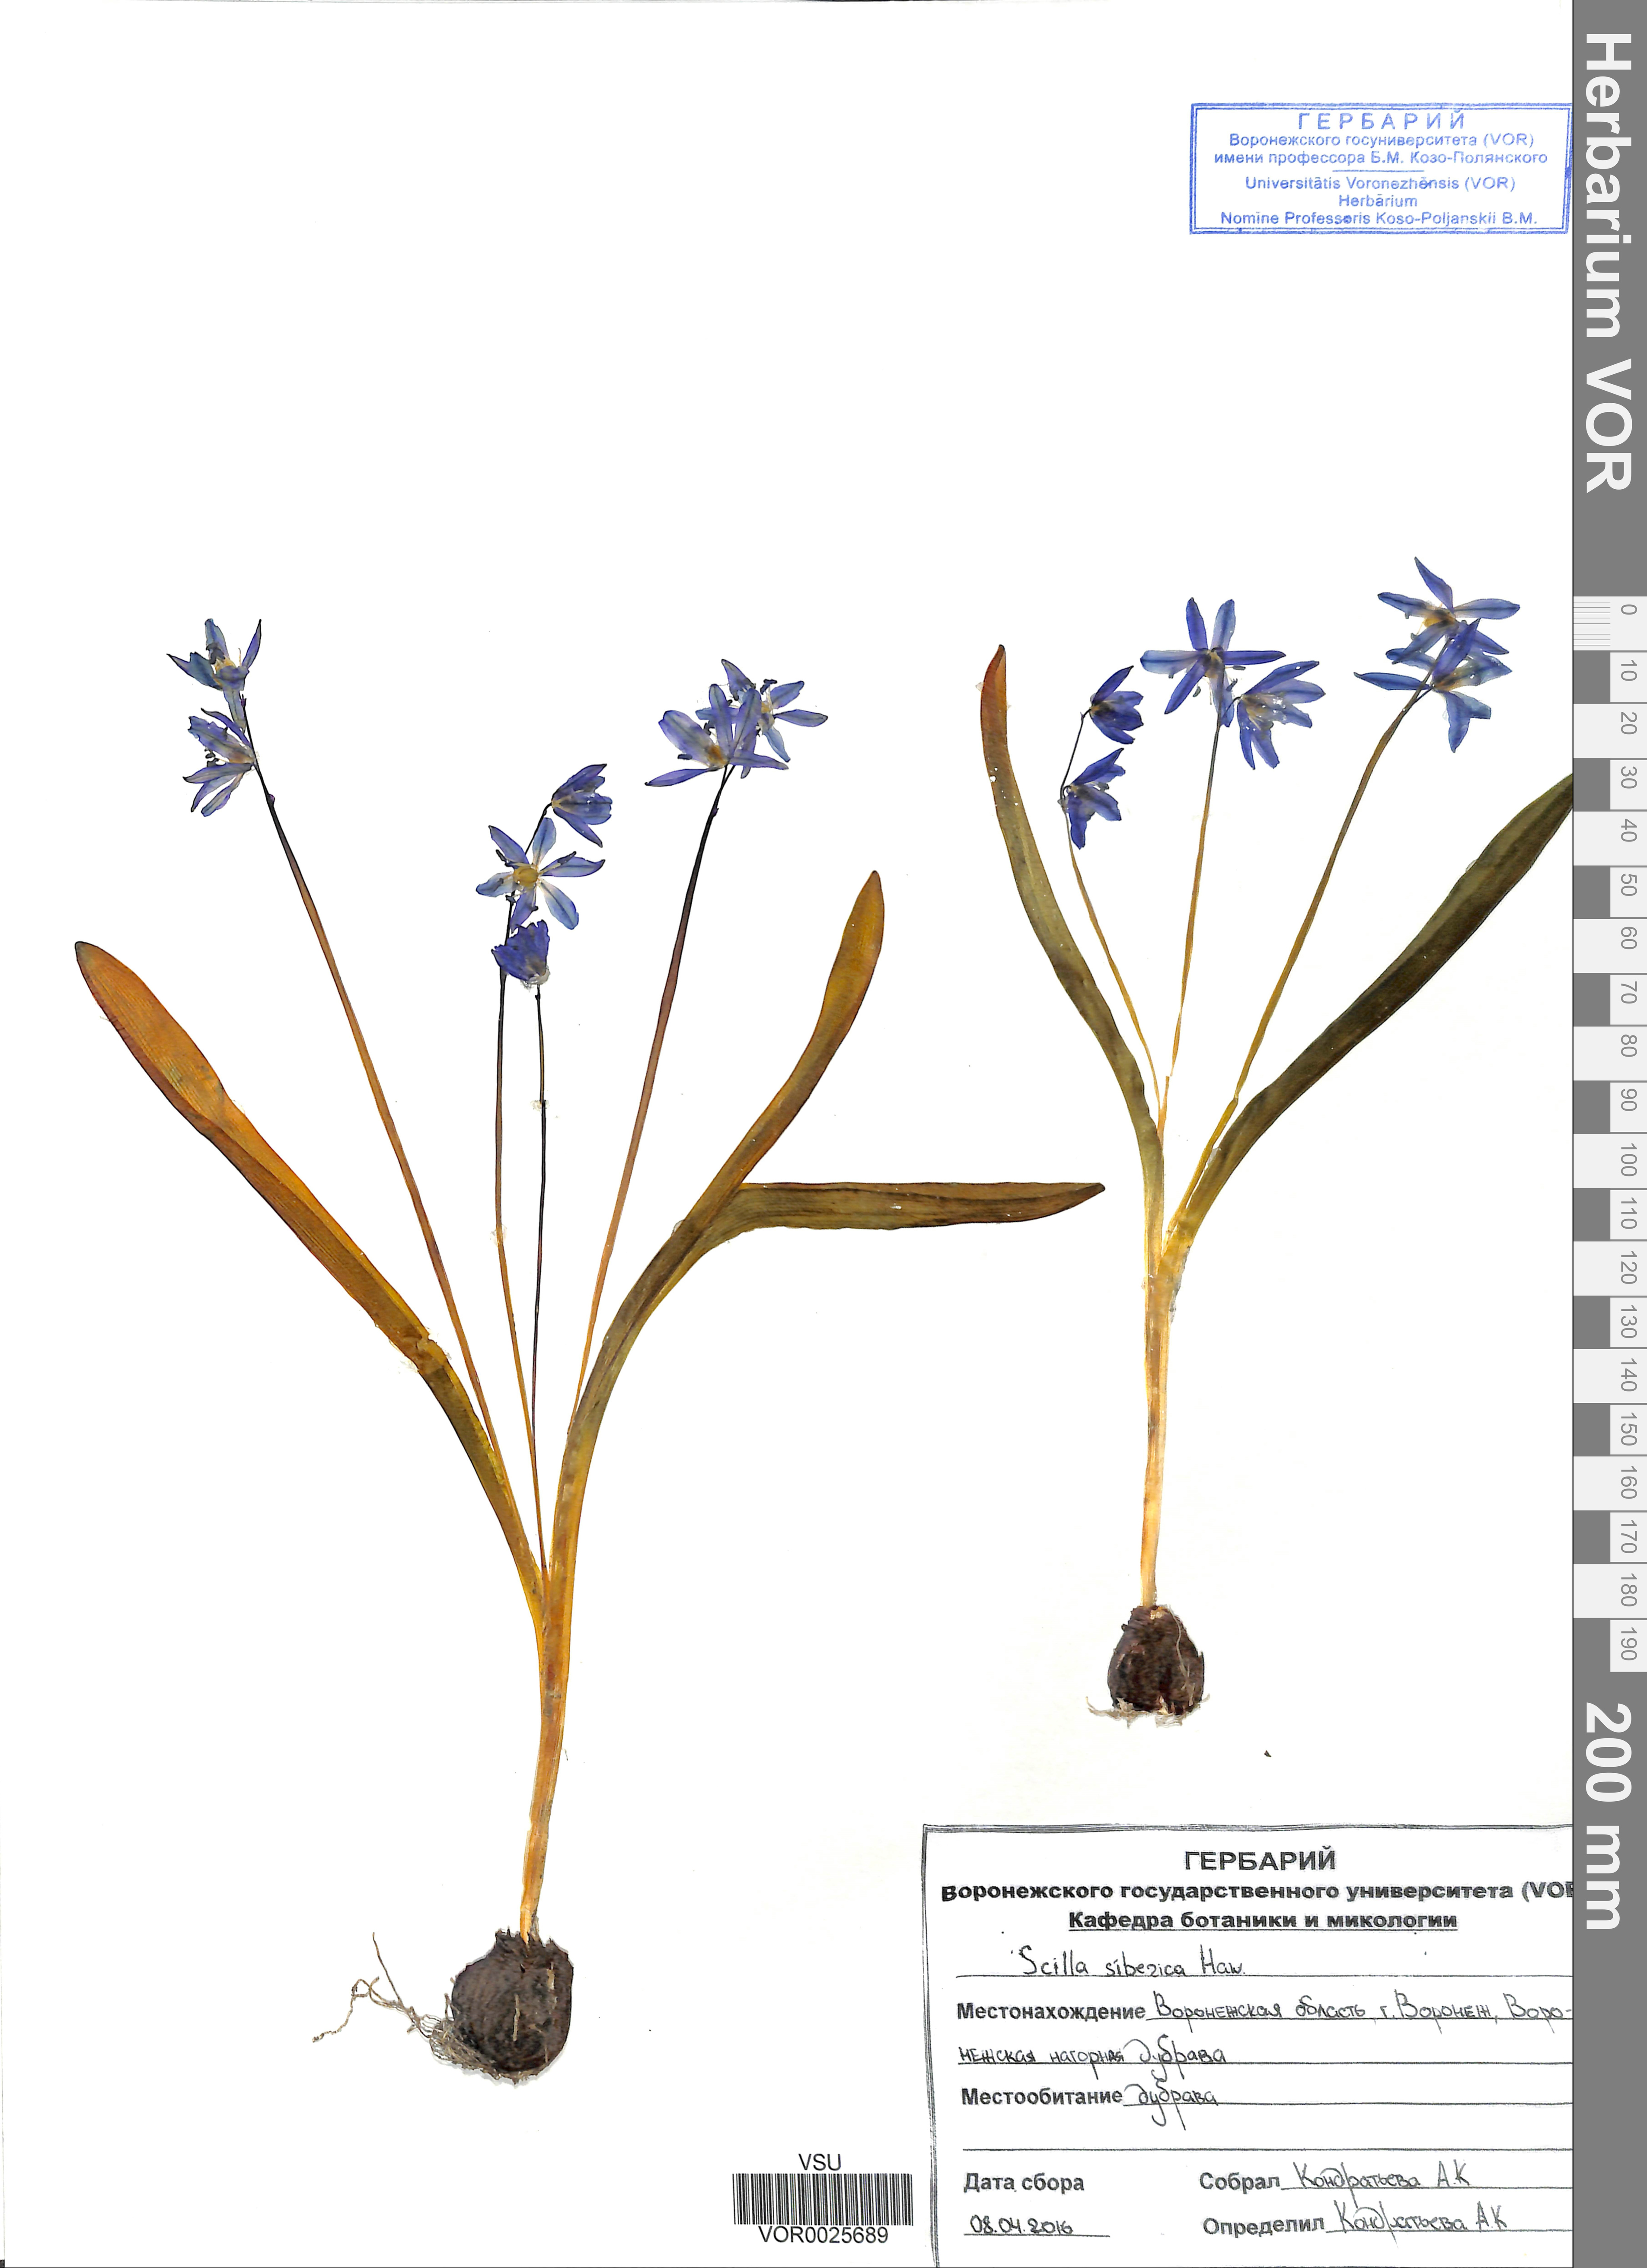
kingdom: Plantae
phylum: Tracheophyta
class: Liliopsida
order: Asparagales
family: Asparagaceae
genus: Scilla
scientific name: Scilla siberica
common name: Siberian squill
